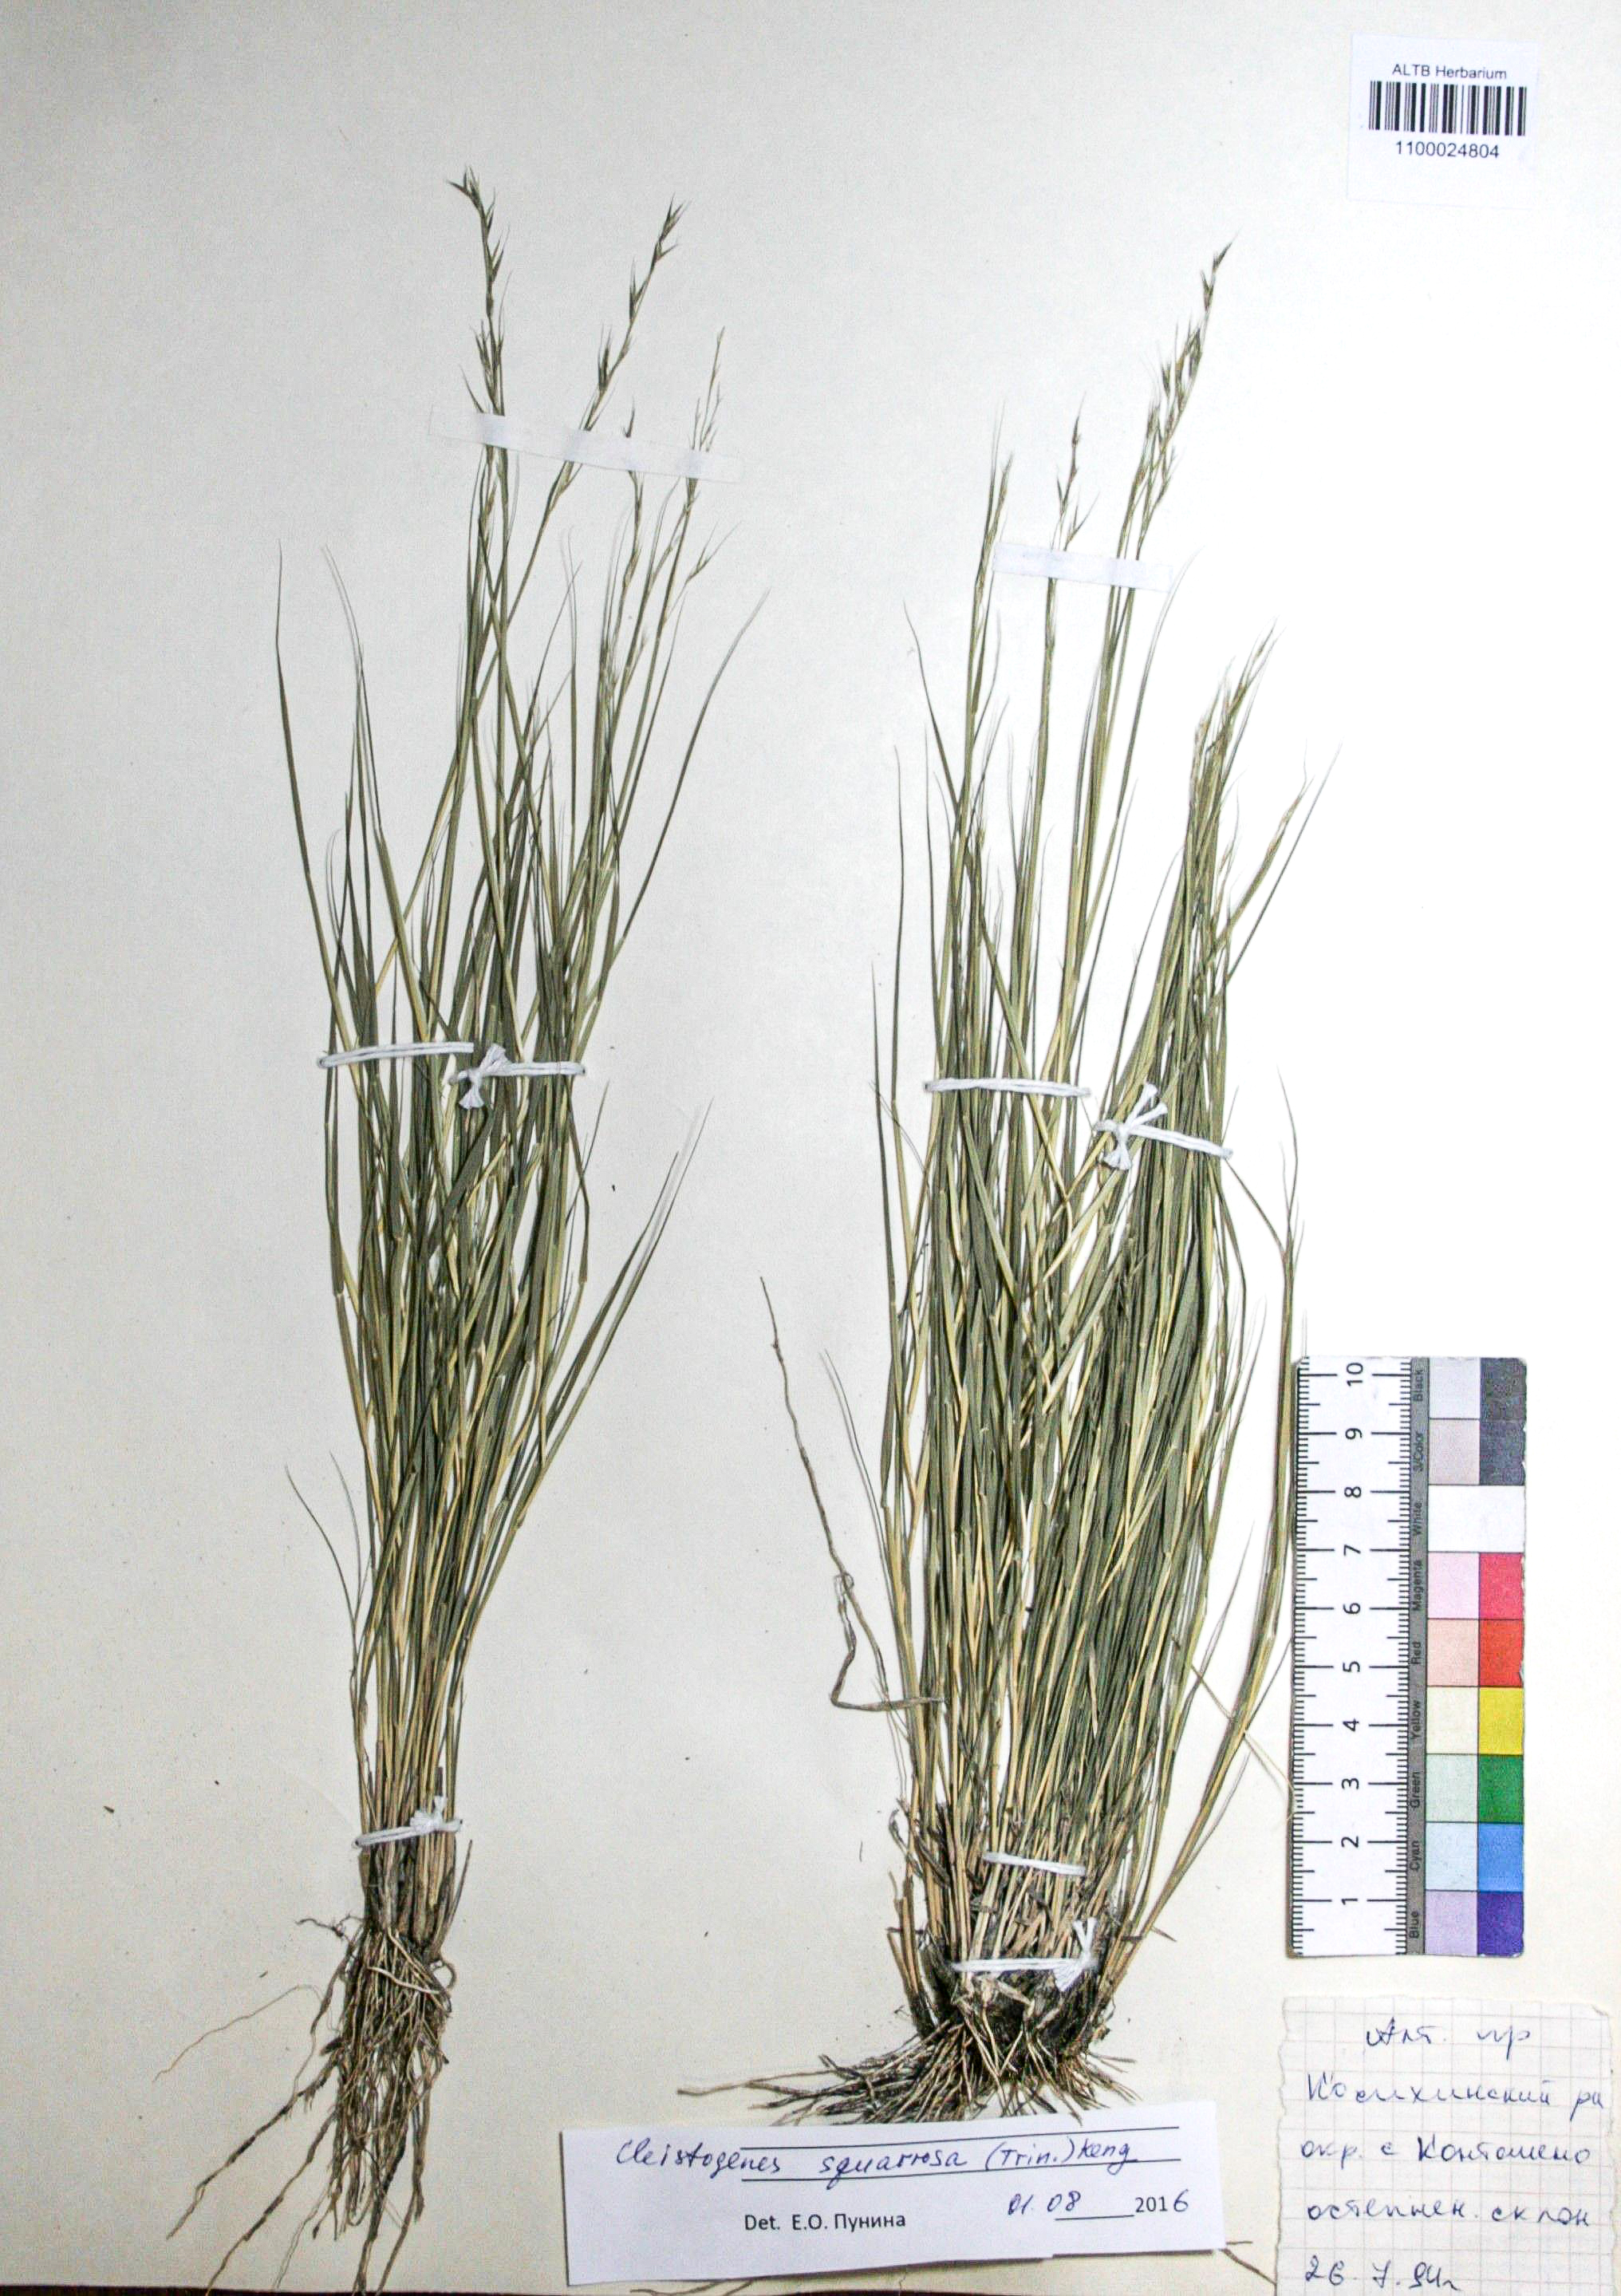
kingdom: Plantae
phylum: Tracheophyta
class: Liliopsida
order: Poales
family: Poaceae
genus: Cleistogenes
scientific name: Cleistogenes squarrosa
